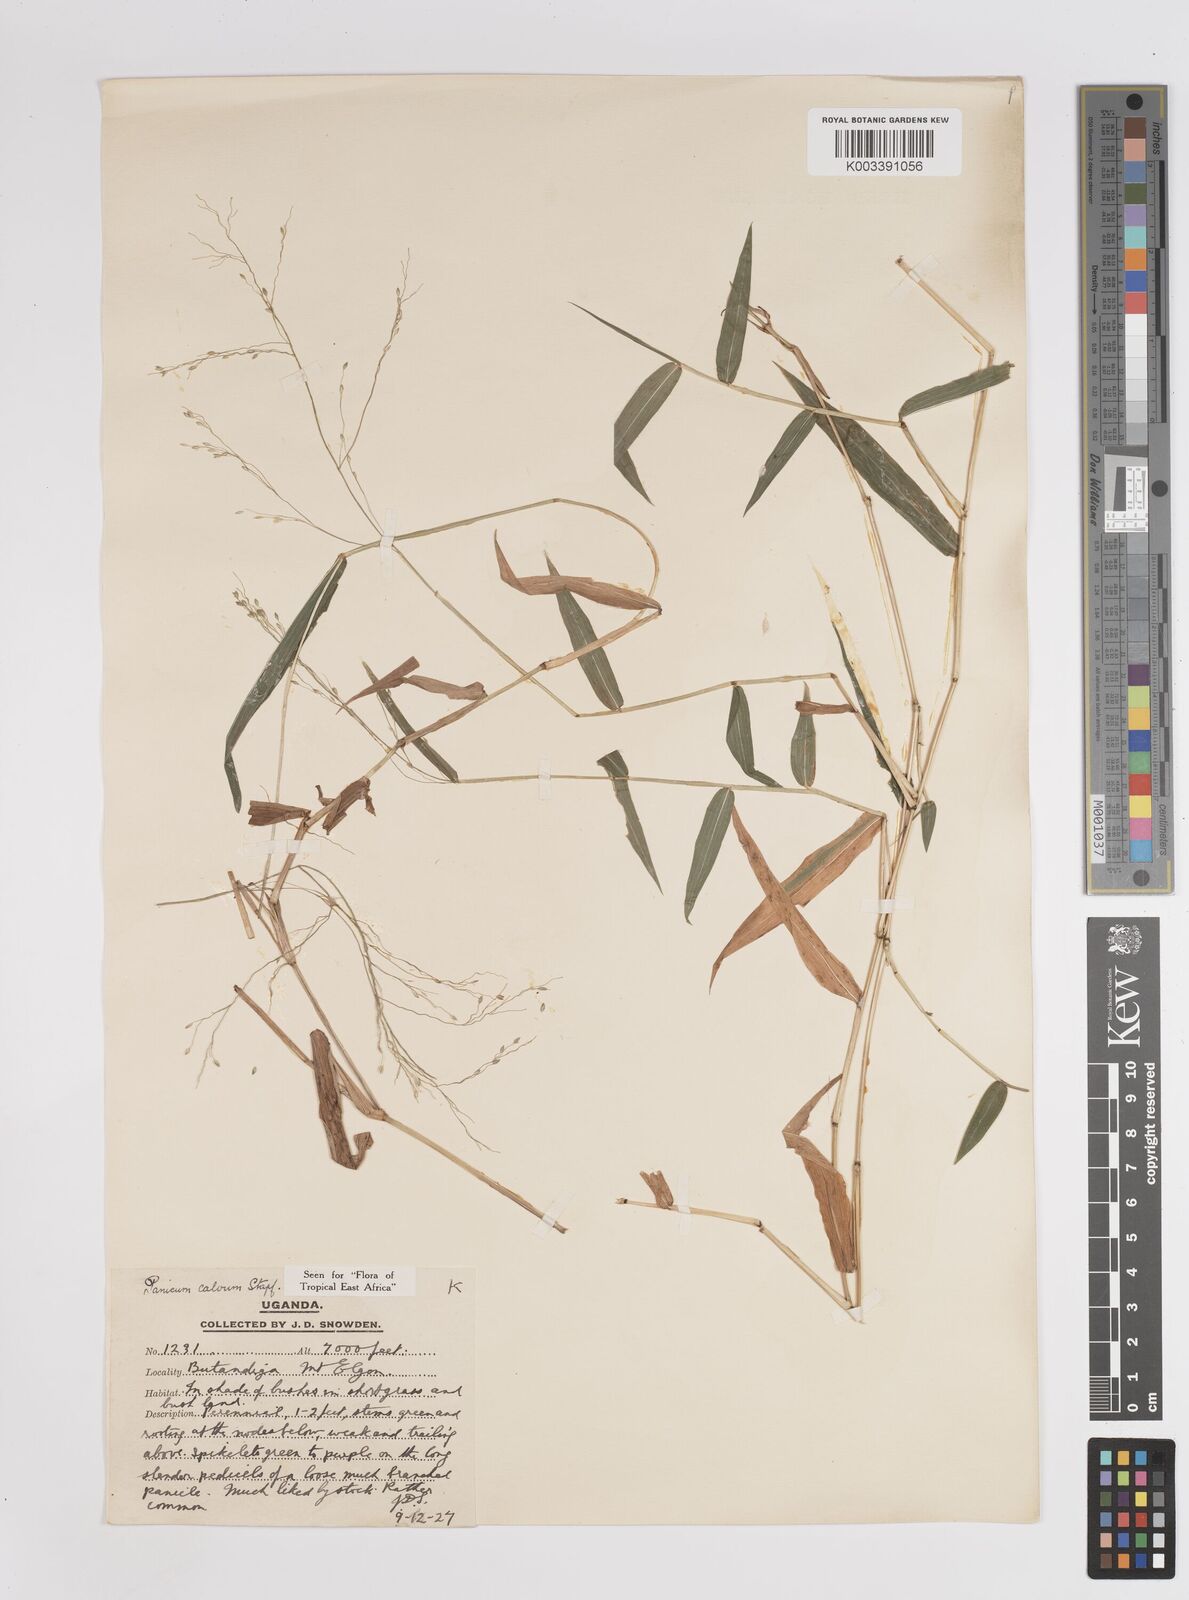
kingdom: Plantae
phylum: Tracheophyta
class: Liliopsida
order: Poales
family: Poaceae
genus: Panicum
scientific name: Panicum calvum
